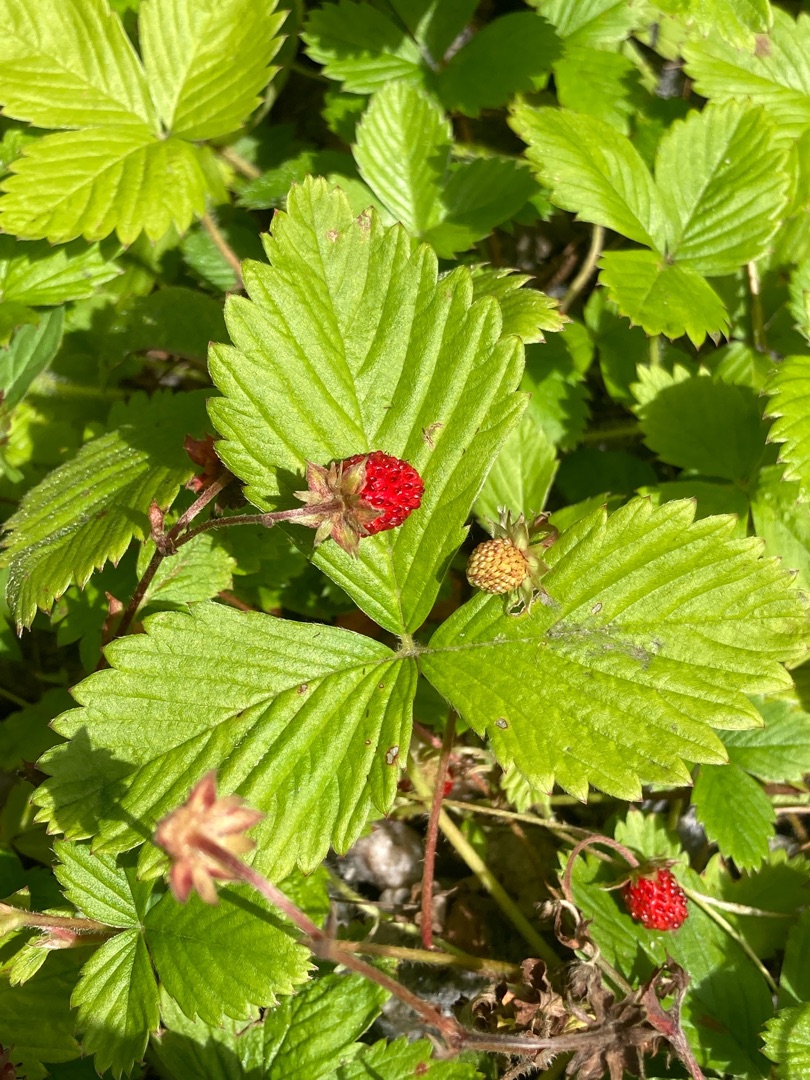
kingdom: Plantae
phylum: Tracheophyta
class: Magnoliopsida
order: Rosales
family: Rosaceae
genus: Fragaria
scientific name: Fragaria vesca
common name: Skov-jordbær
